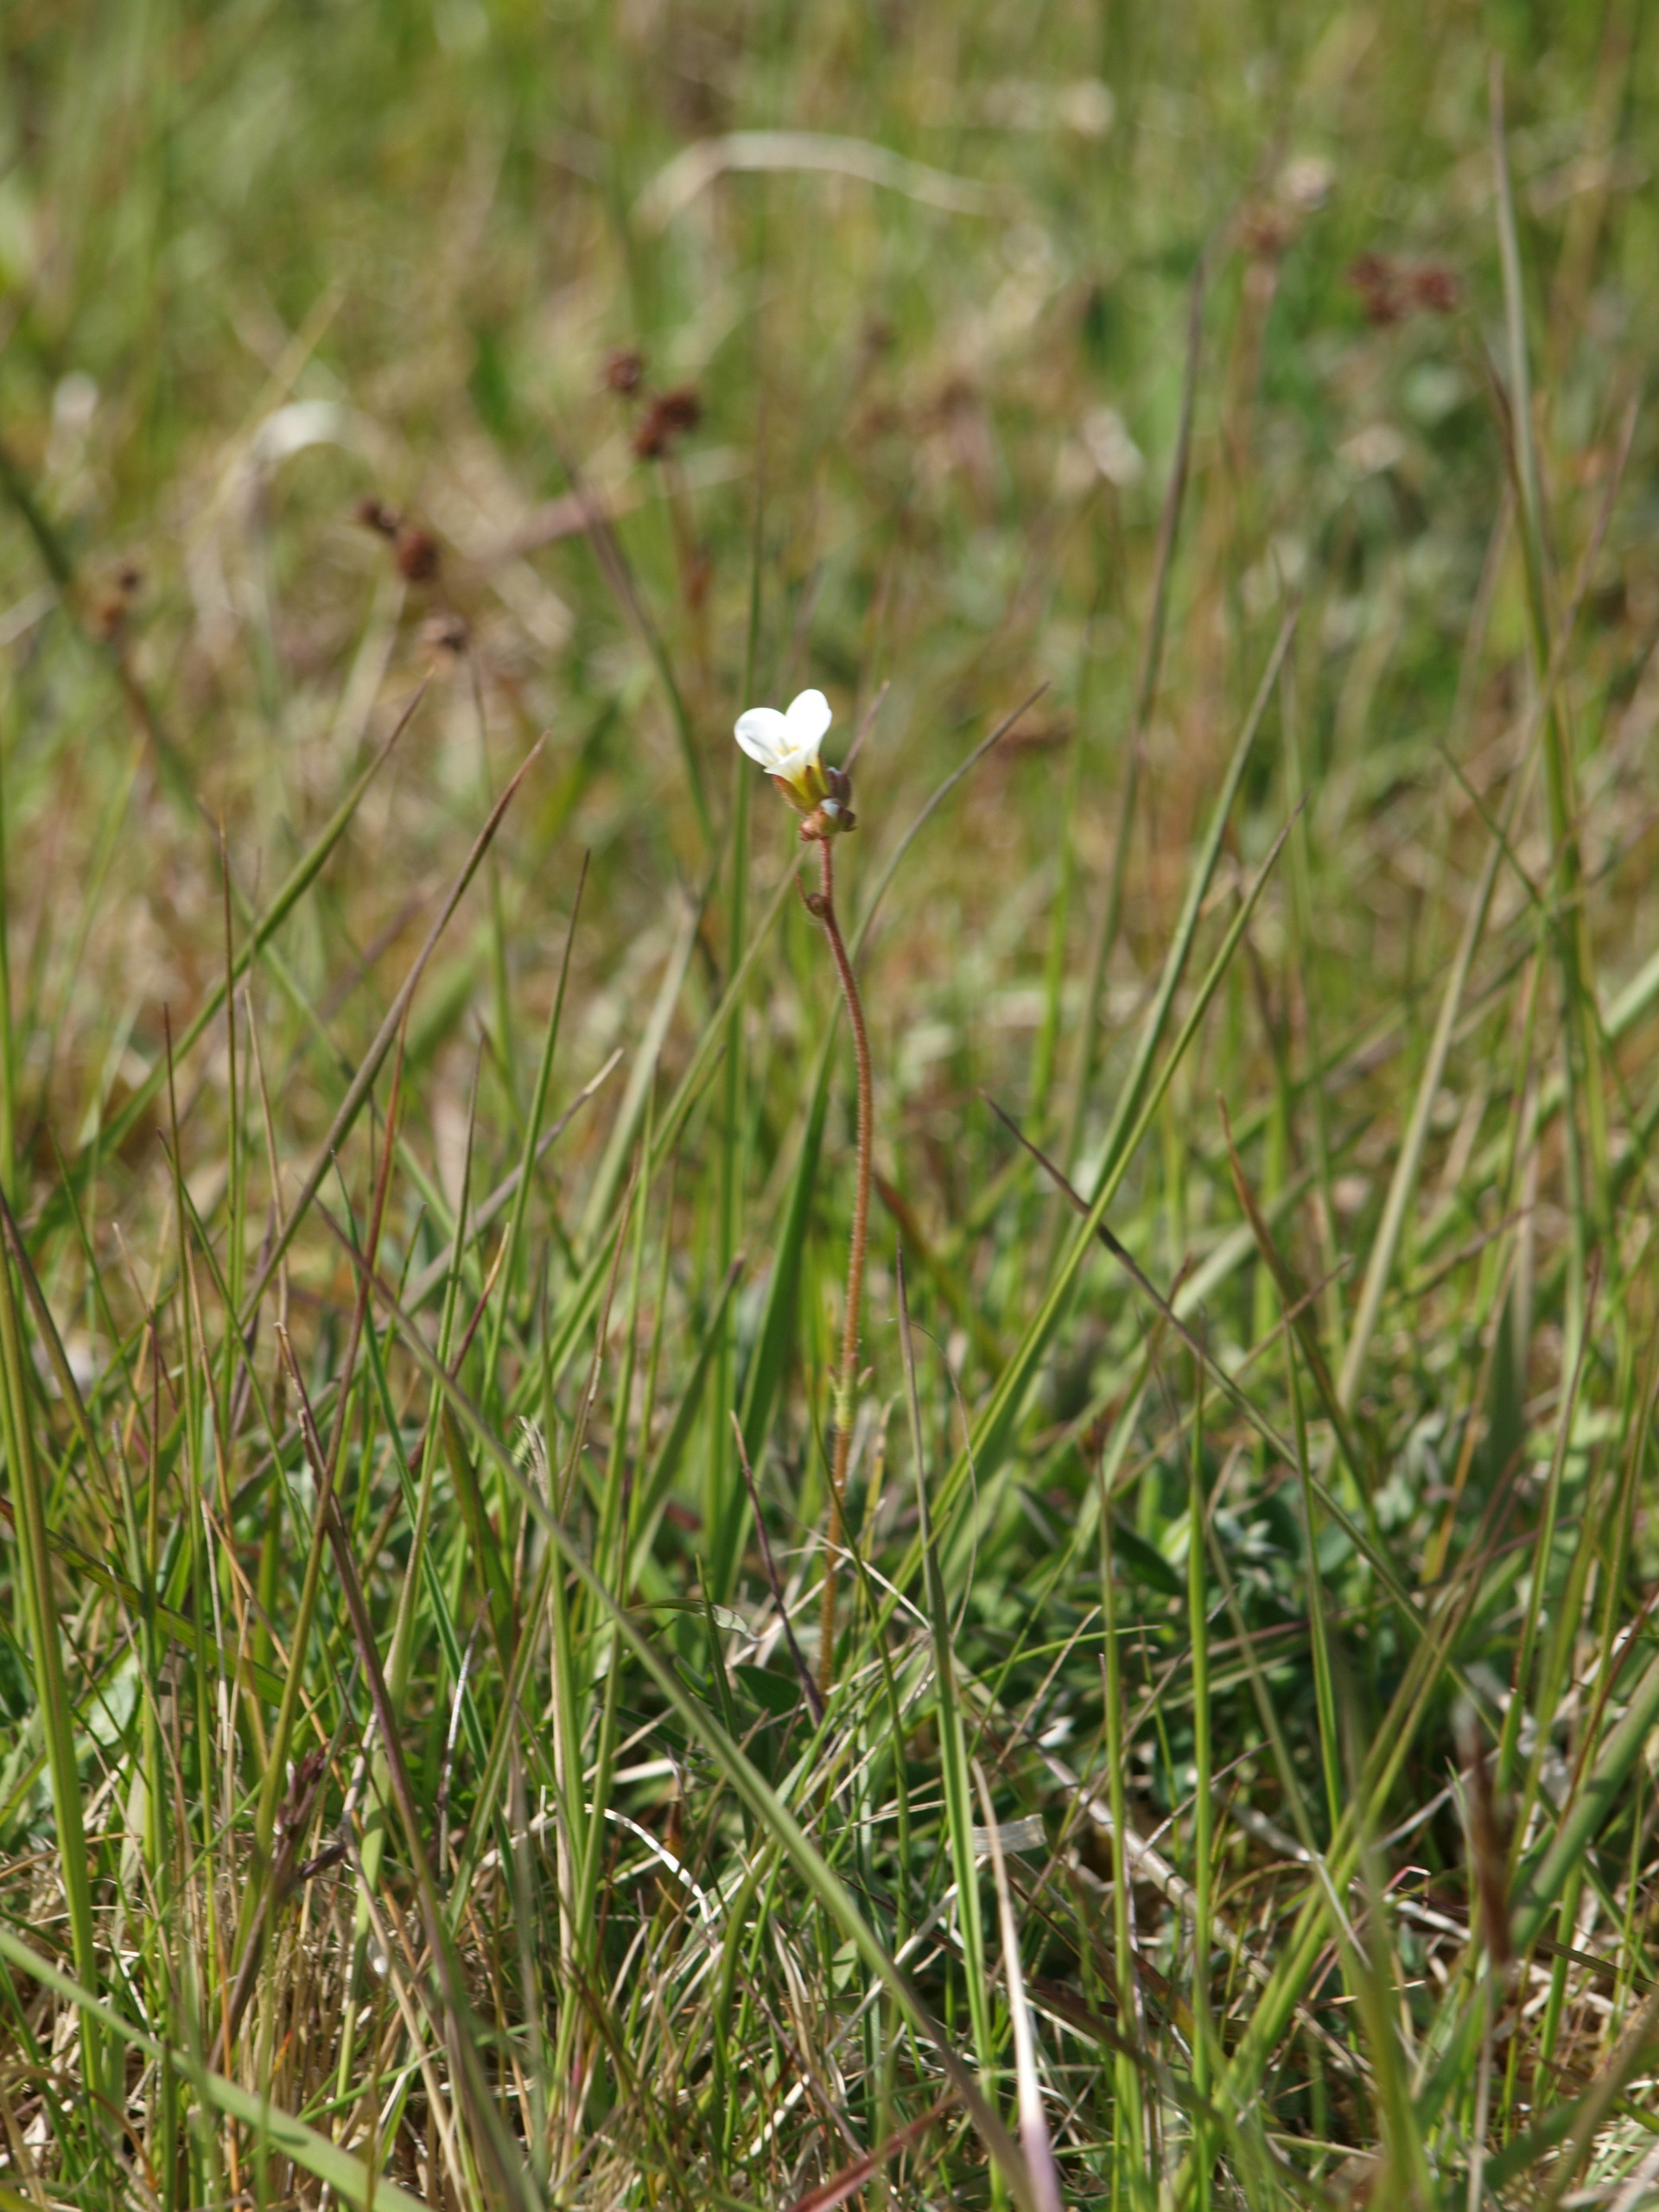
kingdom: Plantae
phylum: Tracheophyta
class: Magnoliopsida
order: Saxifragales
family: Saxifragaceae
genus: Saxifraga
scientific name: Saxifraga granulata
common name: Kornet stenbræk
